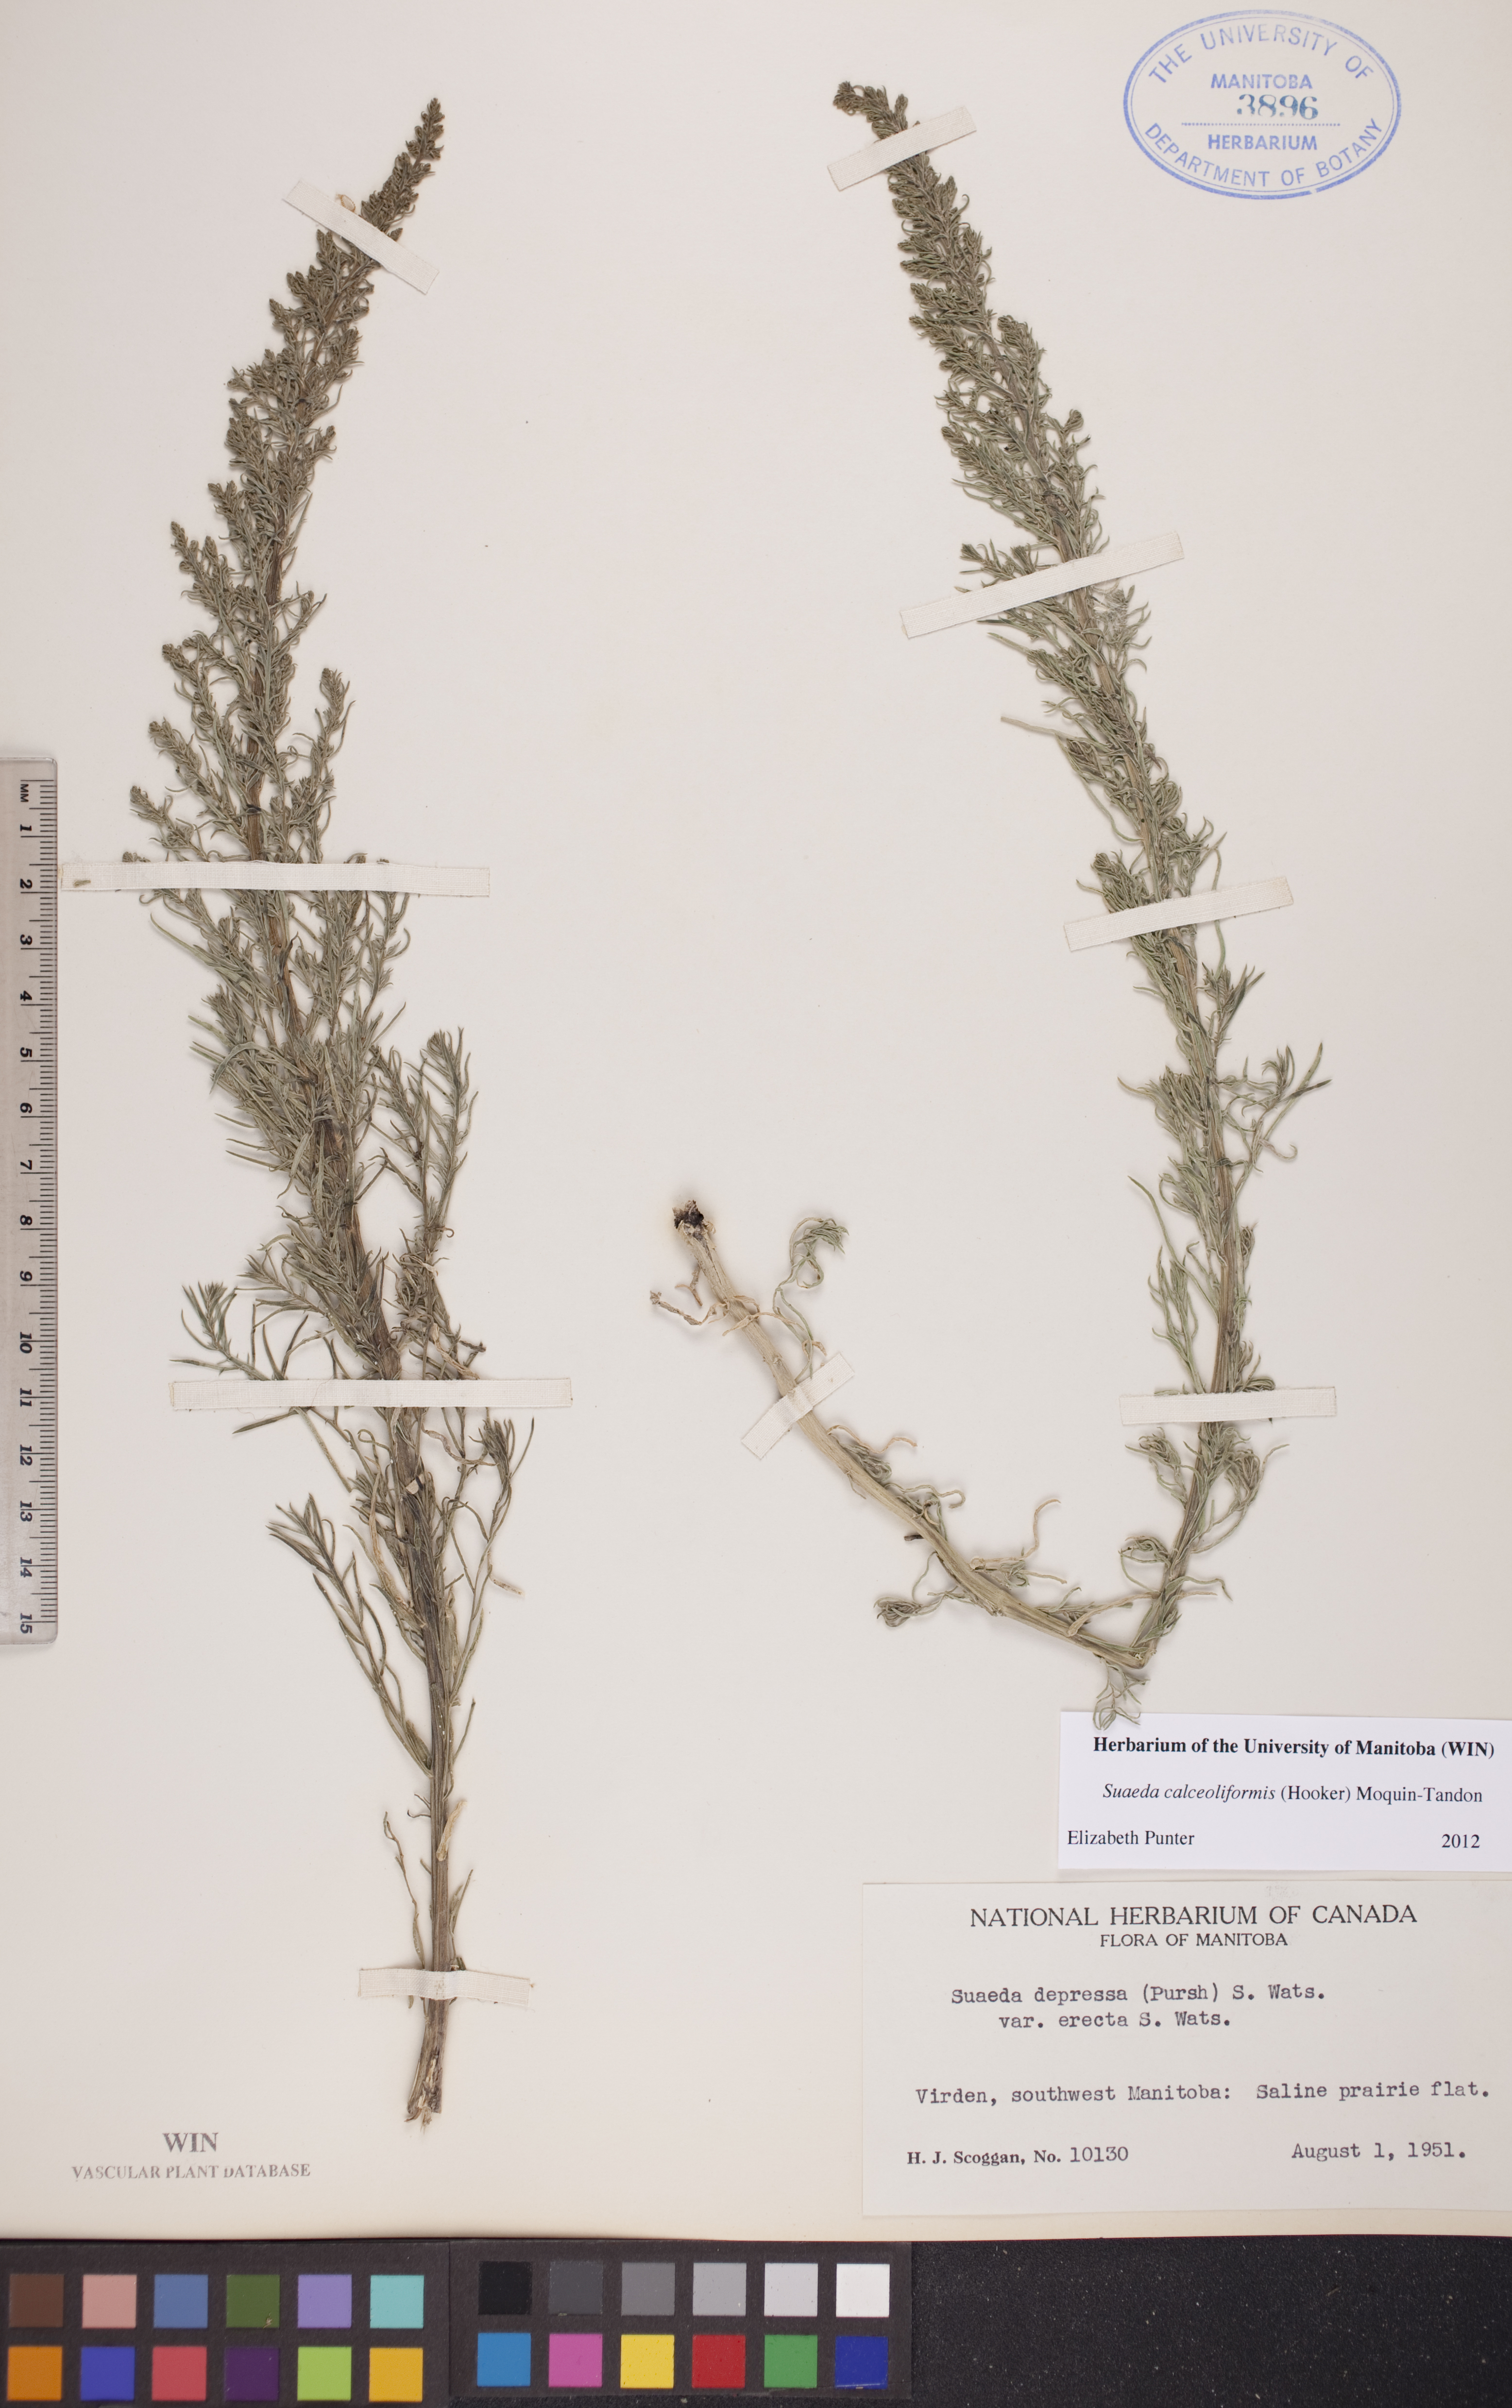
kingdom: Plantae
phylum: Tracheophyta
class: Magnoliopsida
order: Caryophyllales
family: Amaranthaceae
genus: Suaeda
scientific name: Suaeda calceoliformis
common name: Pursh's seepweed
